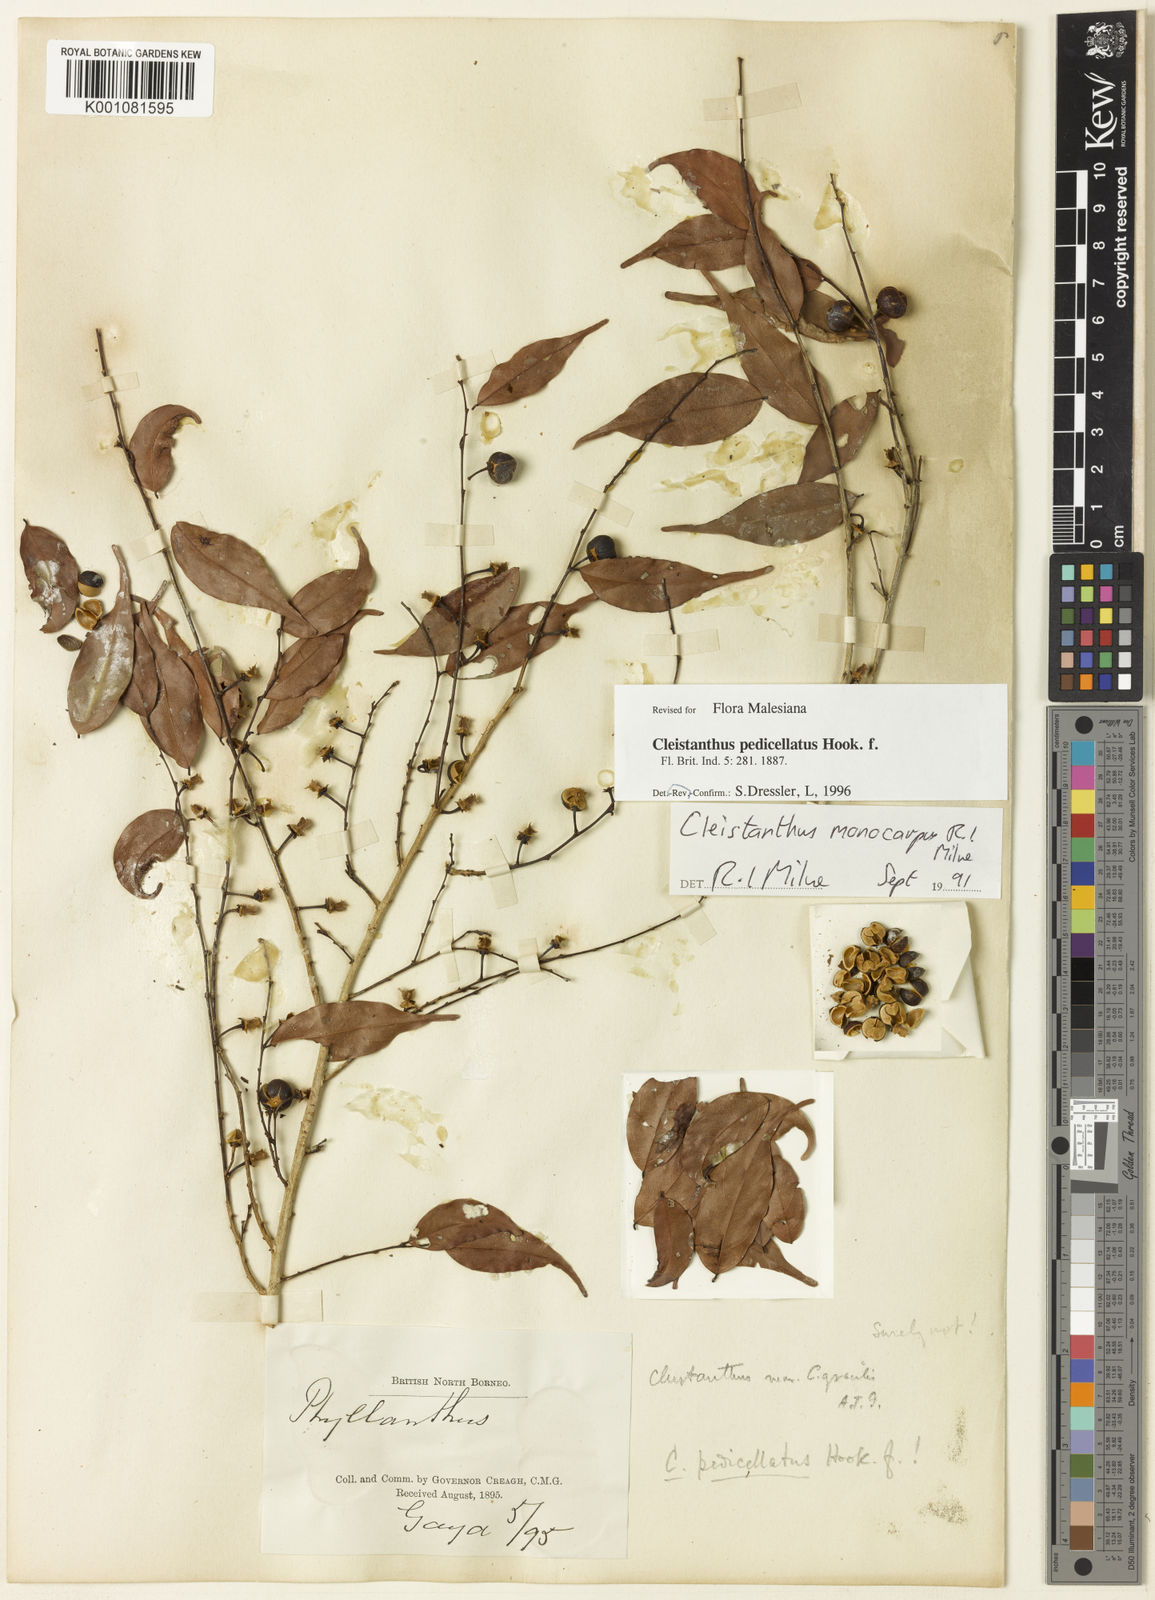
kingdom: Plantae
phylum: Tracheophyta
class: Magnoliopsida
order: Malpighiales
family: Phyllanthaceae
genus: Cleistanthus
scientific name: Cleistanthus pedicellatus
